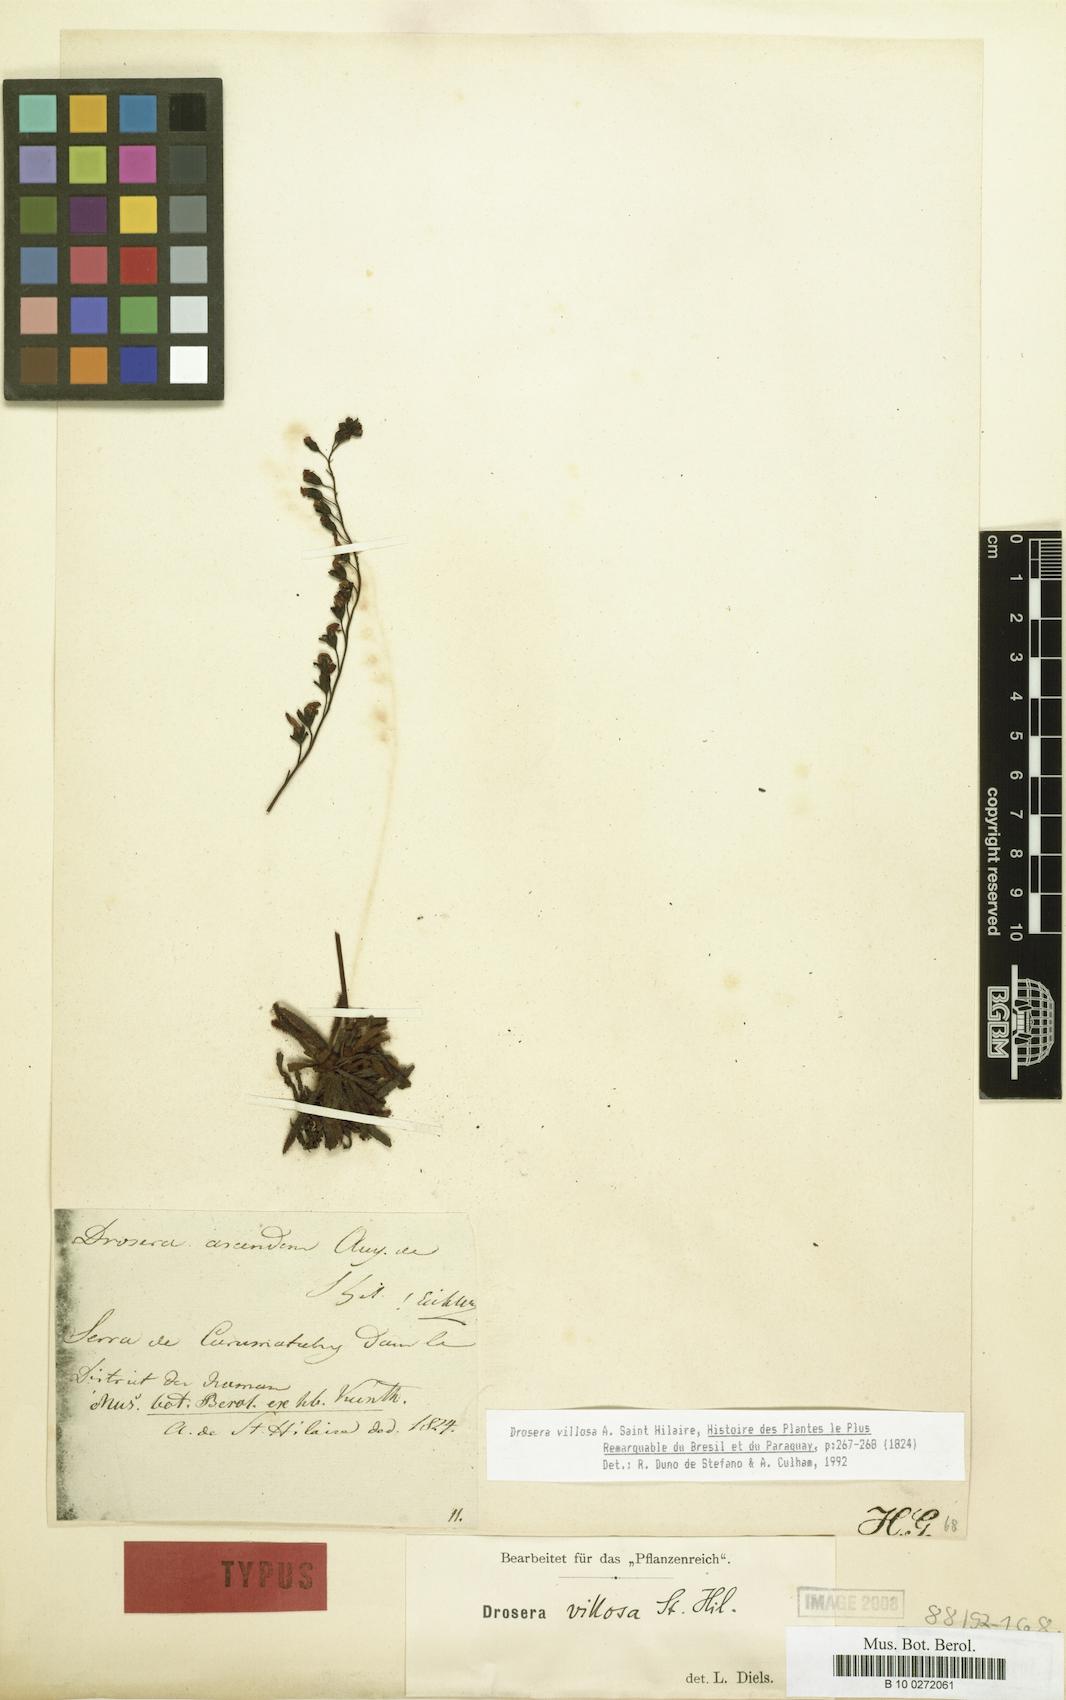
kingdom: Plantae
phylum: Tracheophyta
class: Magnoliopsida
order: Caryophyllales
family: Droseraceae
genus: Drosera
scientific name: Drosera villosa
